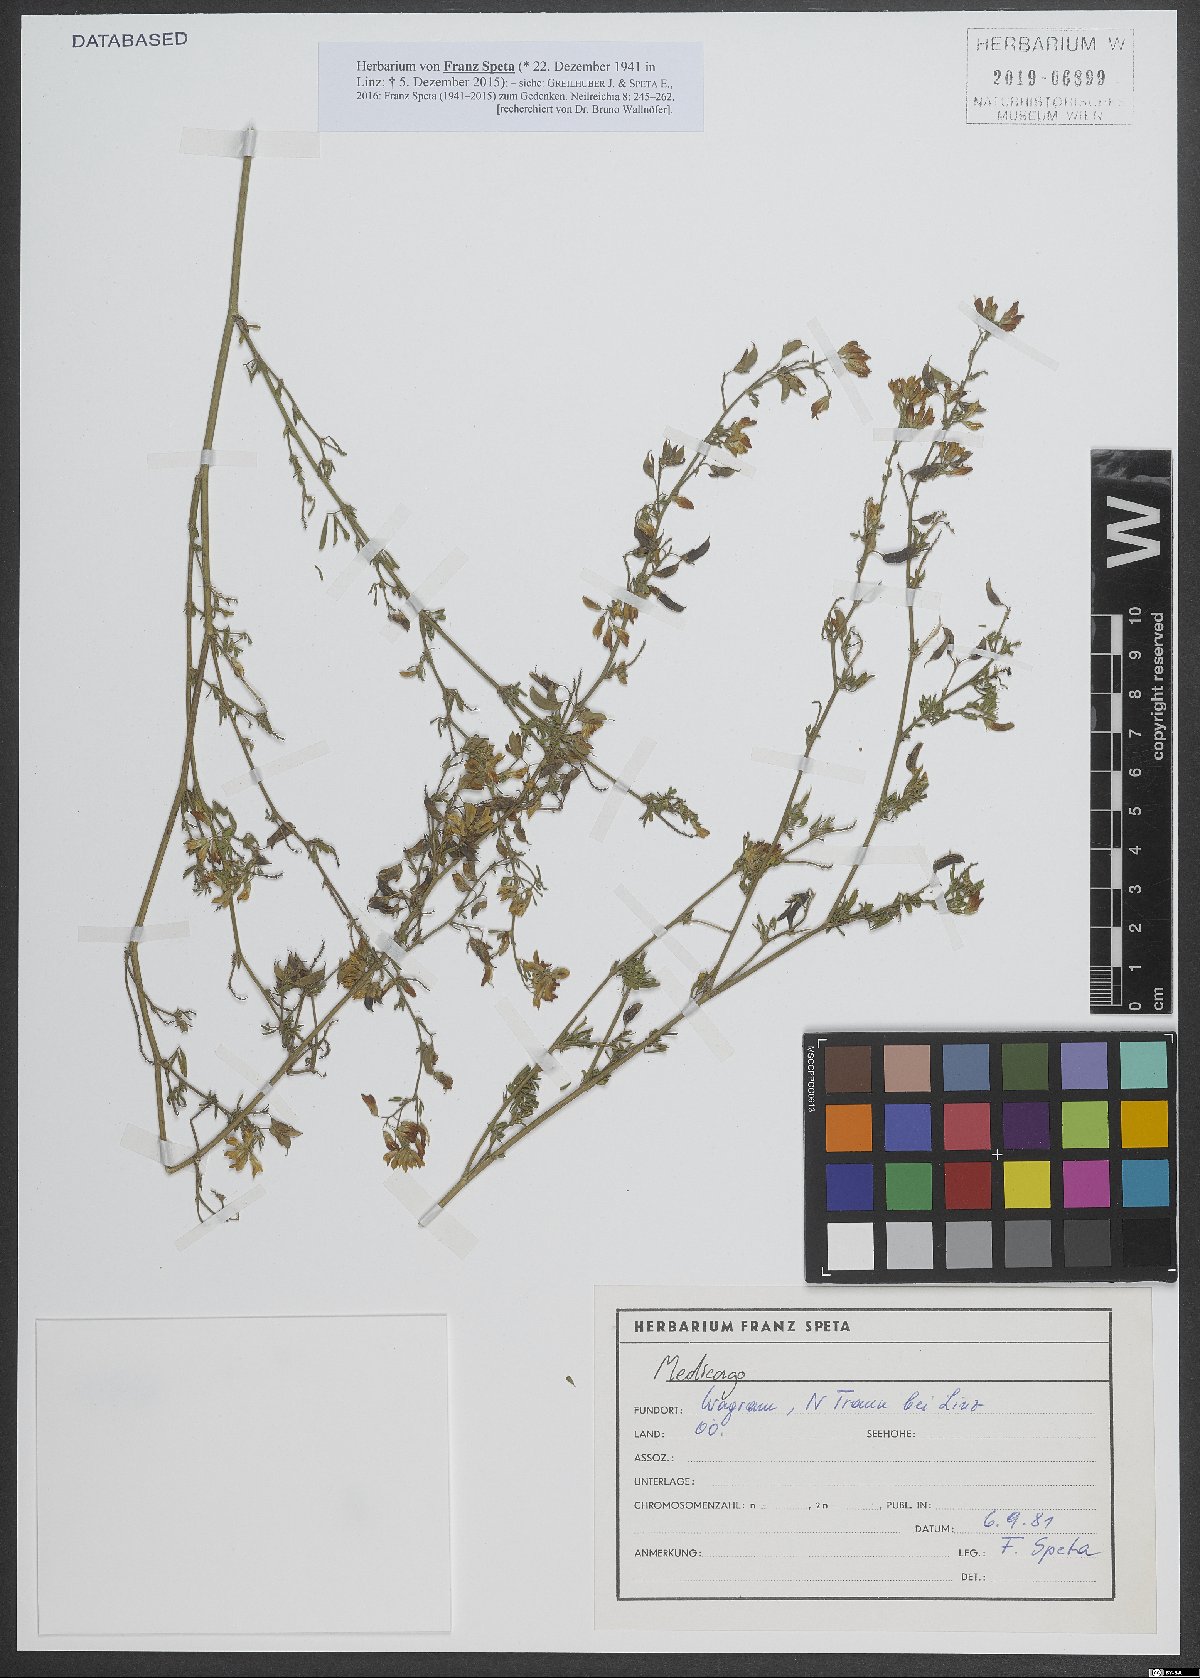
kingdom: Plantae
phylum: Tracheophyta
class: Magnoliopsida
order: Fabales
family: Fabaceae
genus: Medicago
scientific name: Medicago
